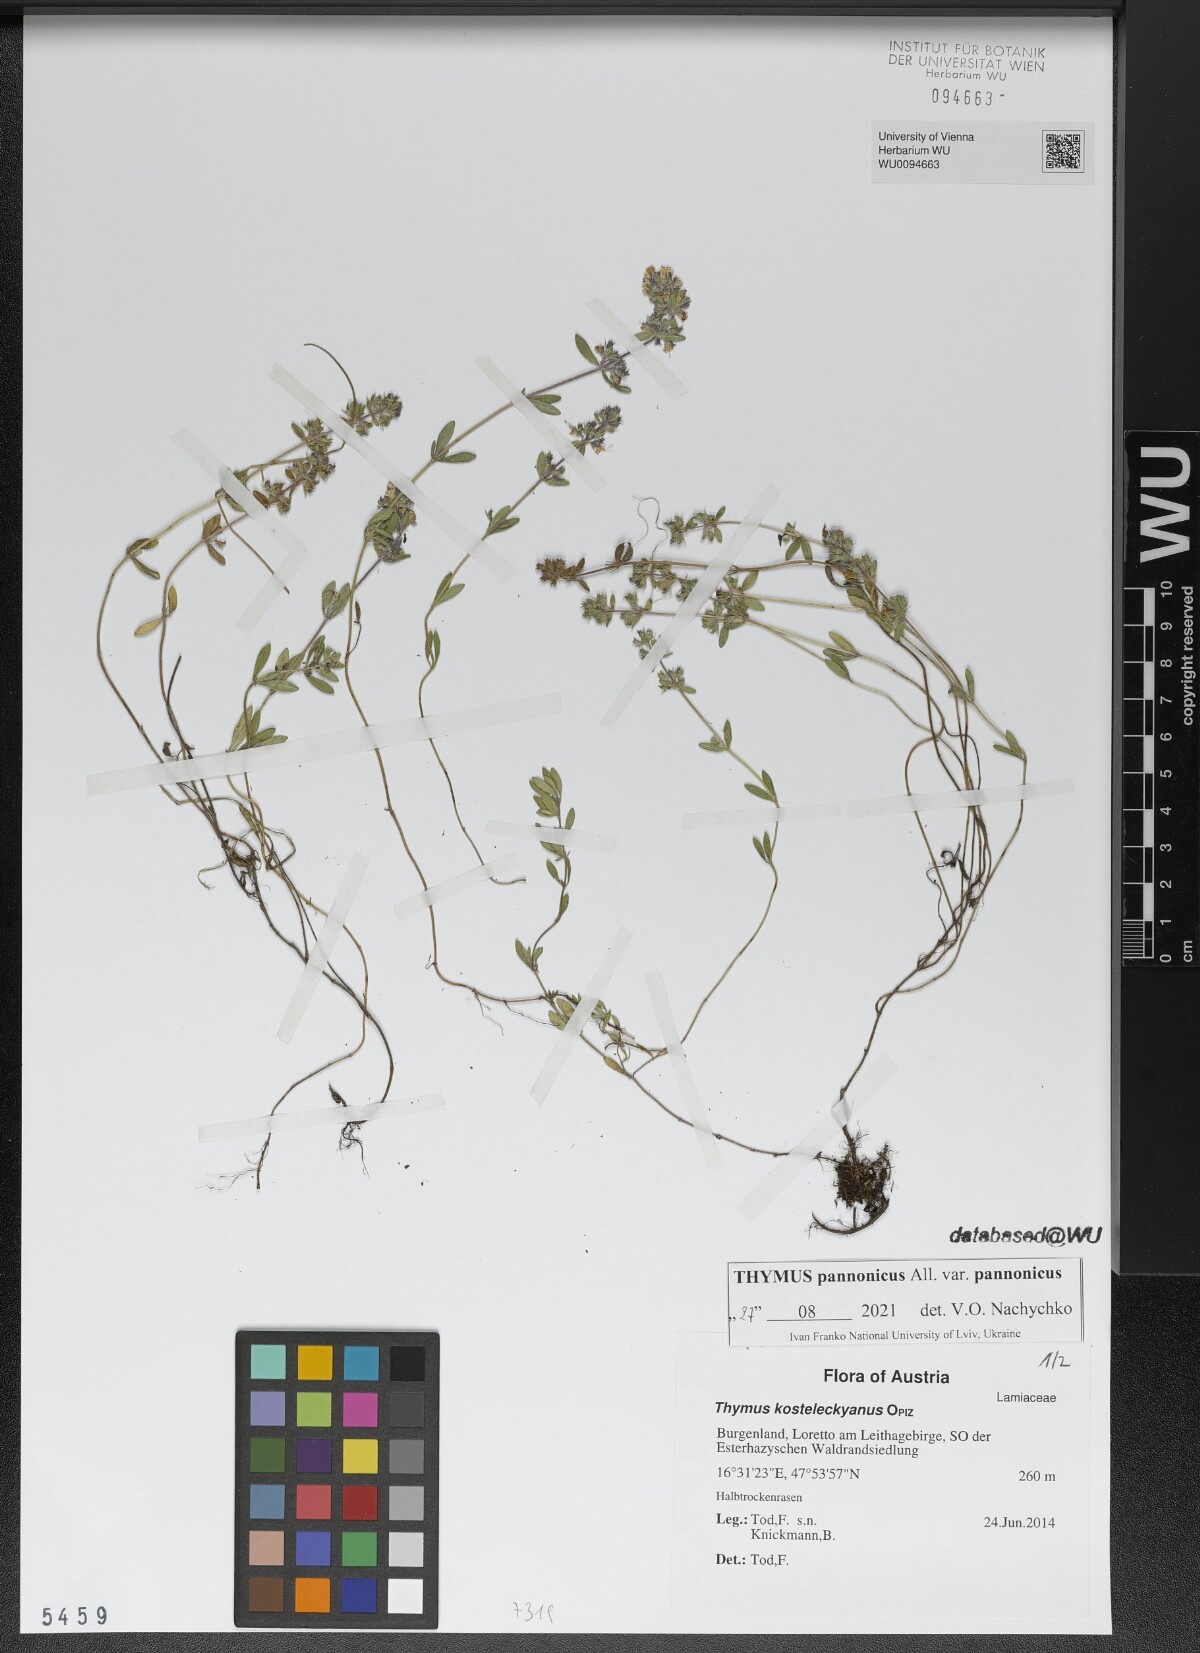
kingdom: Plantae
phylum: Tracheophyta
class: Magnoliopsida
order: Lamiales
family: Lamiaceae
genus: Thymus
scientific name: Thymus pannonicus
